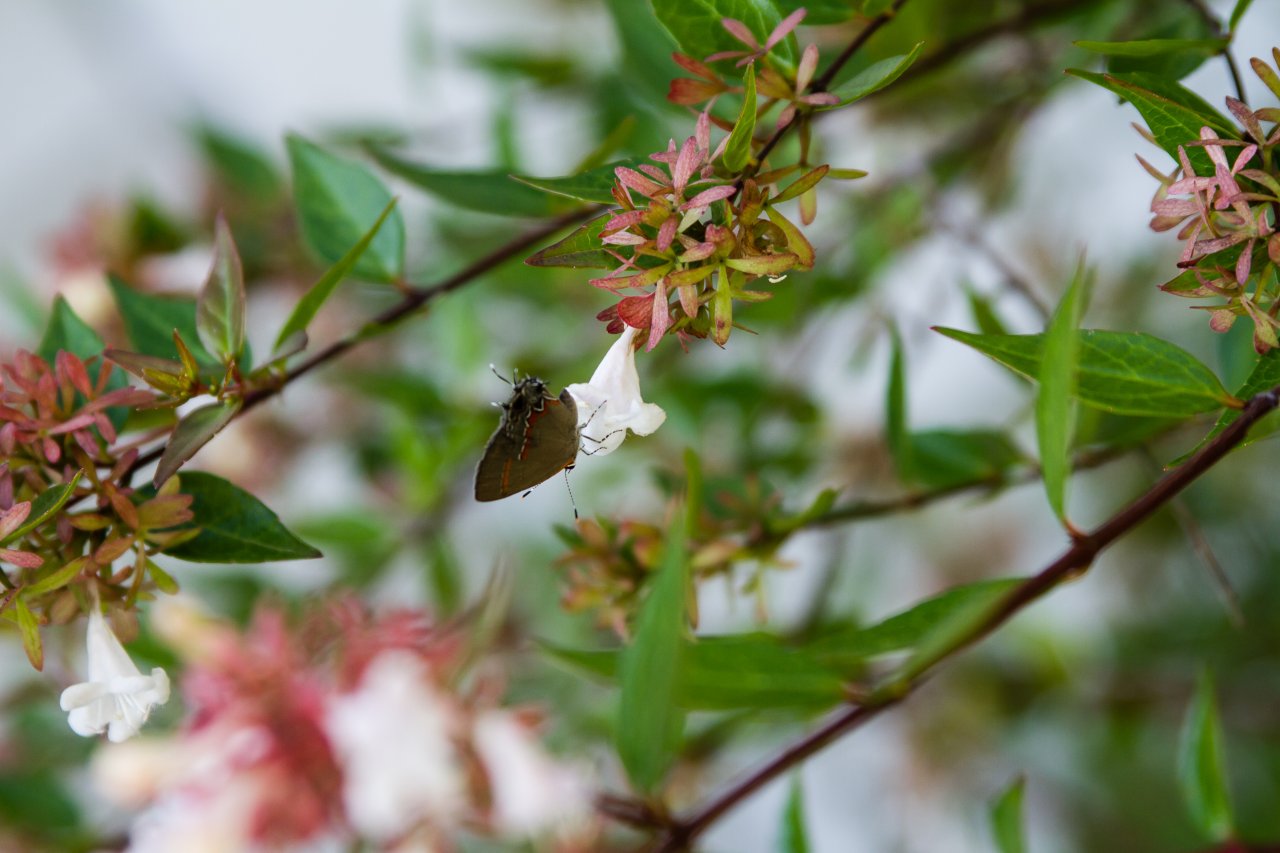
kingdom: Animalia
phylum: Arthropoda
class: Insecta
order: Lepidoptera
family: Lycaenidae
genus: Calycopis
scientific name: Calycopis cecrops
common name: Red-banded Hairstreak
